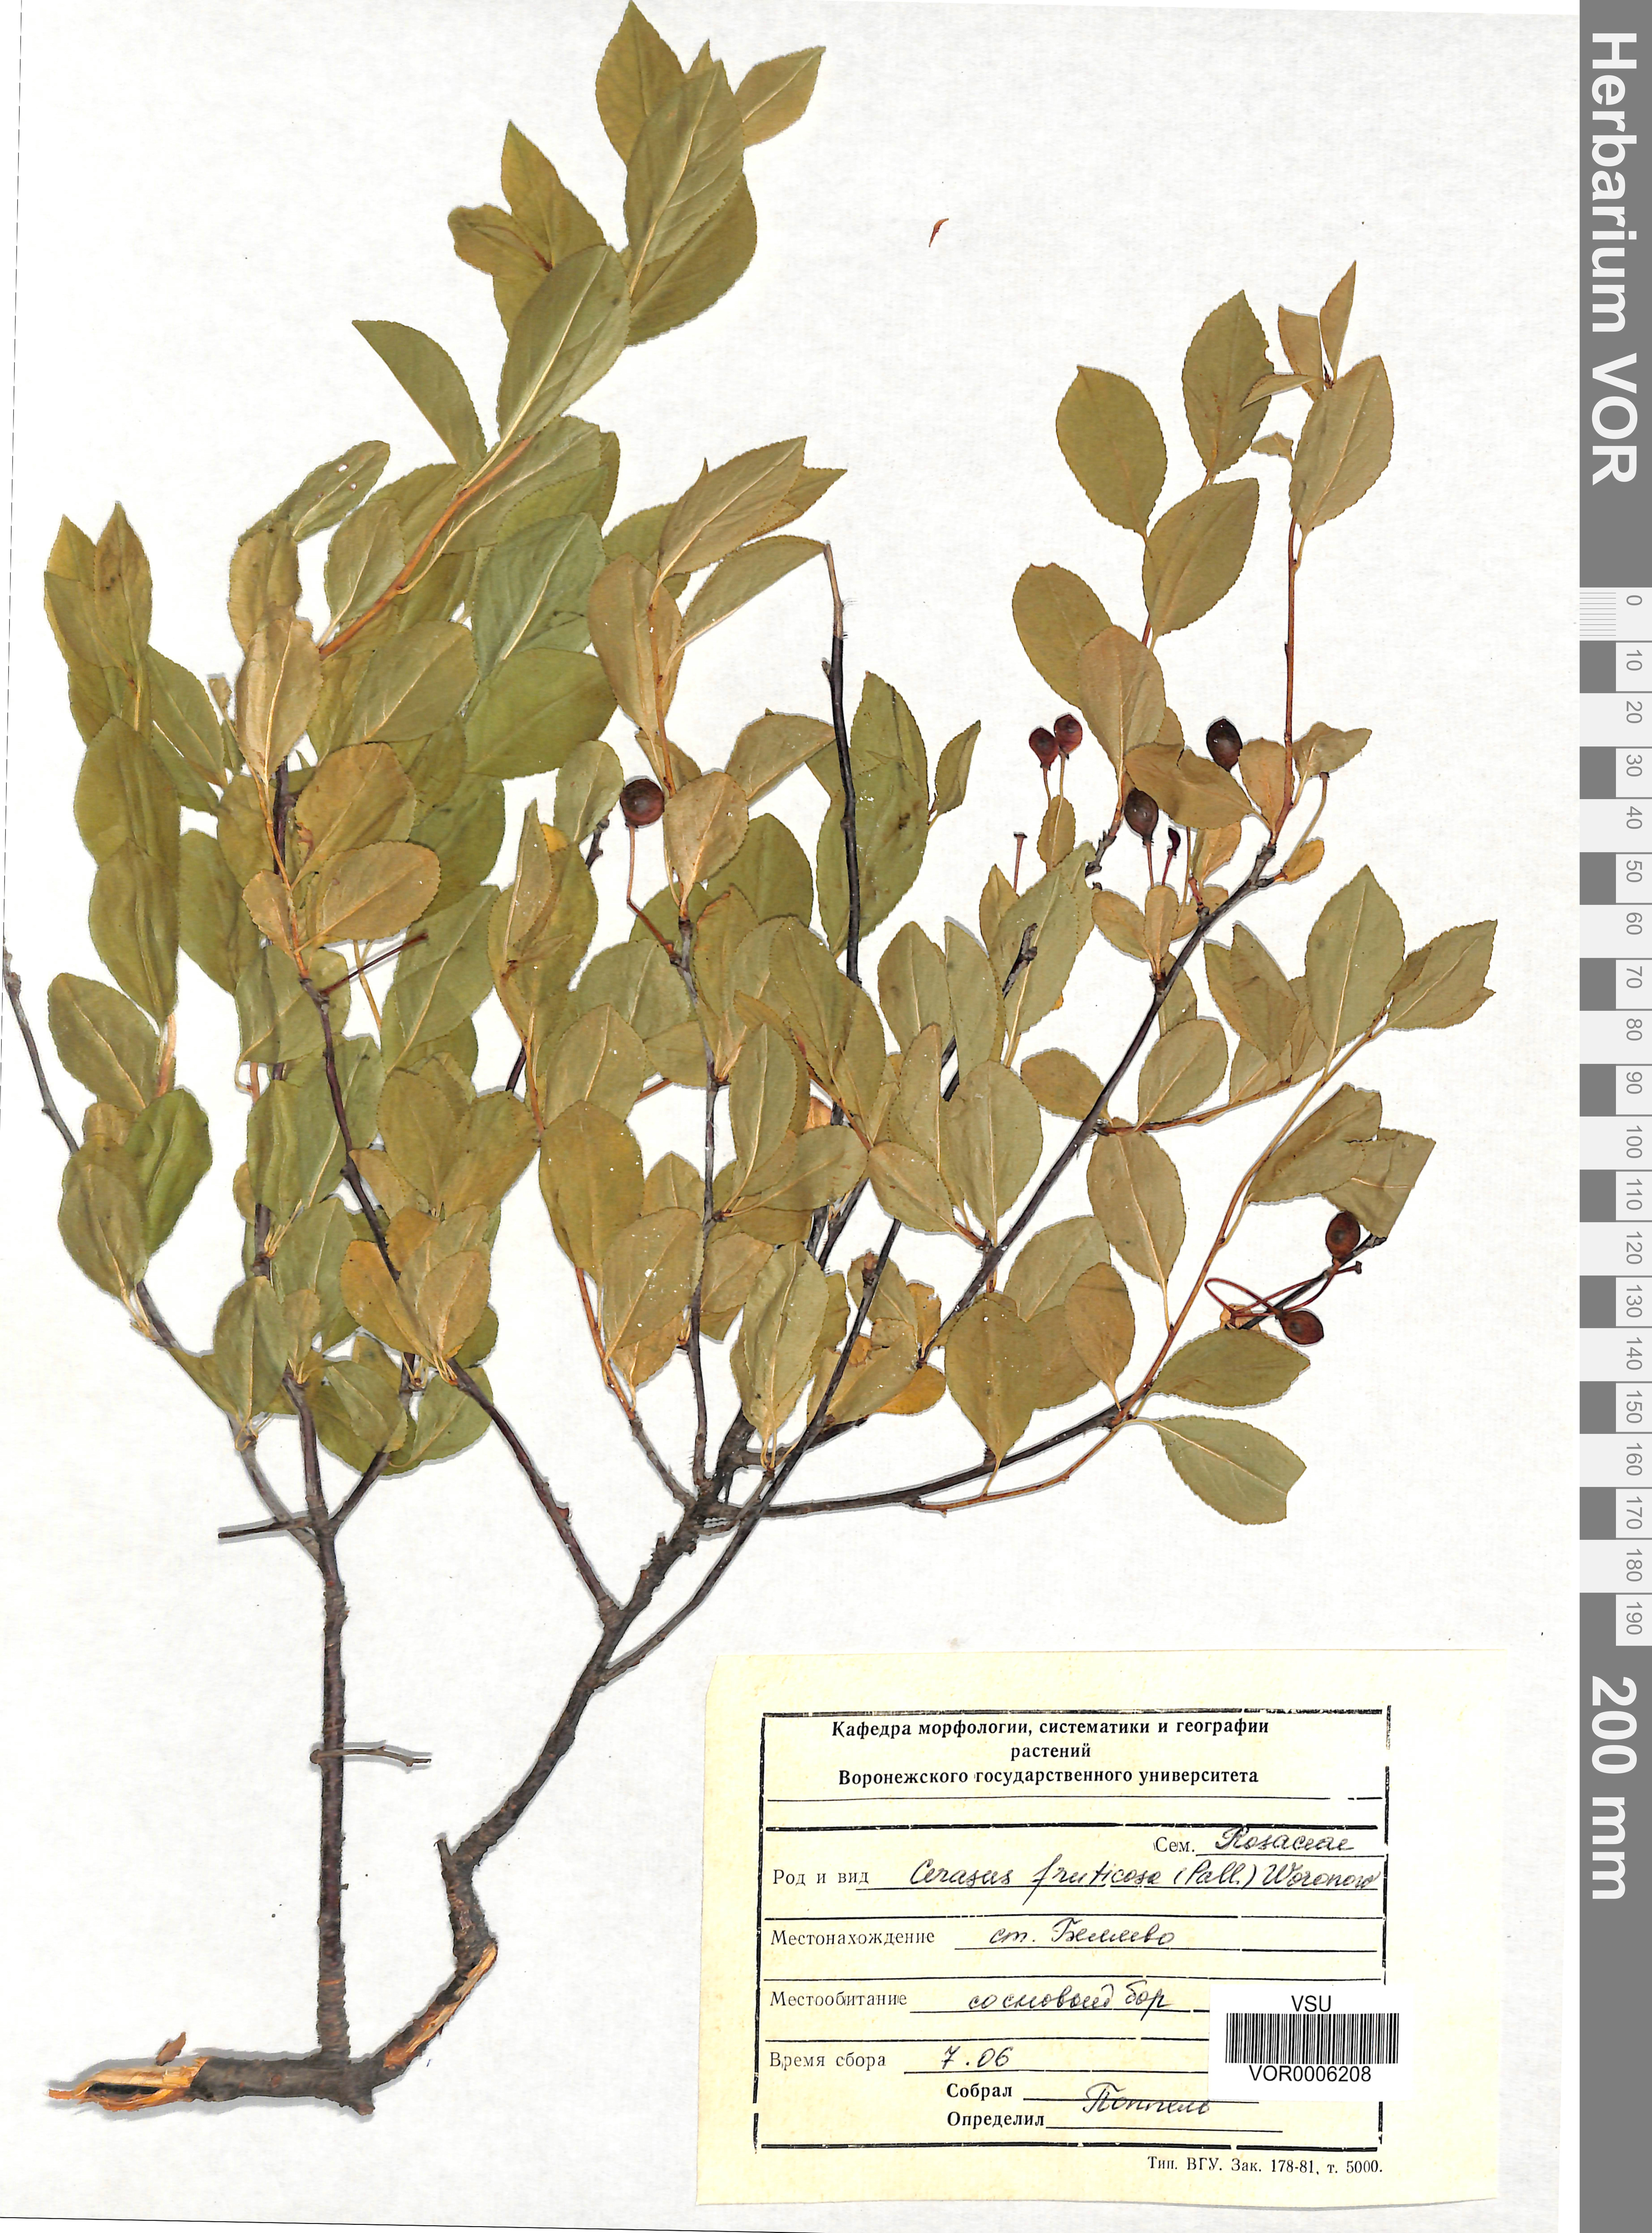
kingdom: Plantae
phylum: Tracheophyta
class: Magnoliopsida
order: Rosales
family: Rosaceae
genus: Prunus
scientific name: Prunus fruticosa
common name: European dwarf cherry
